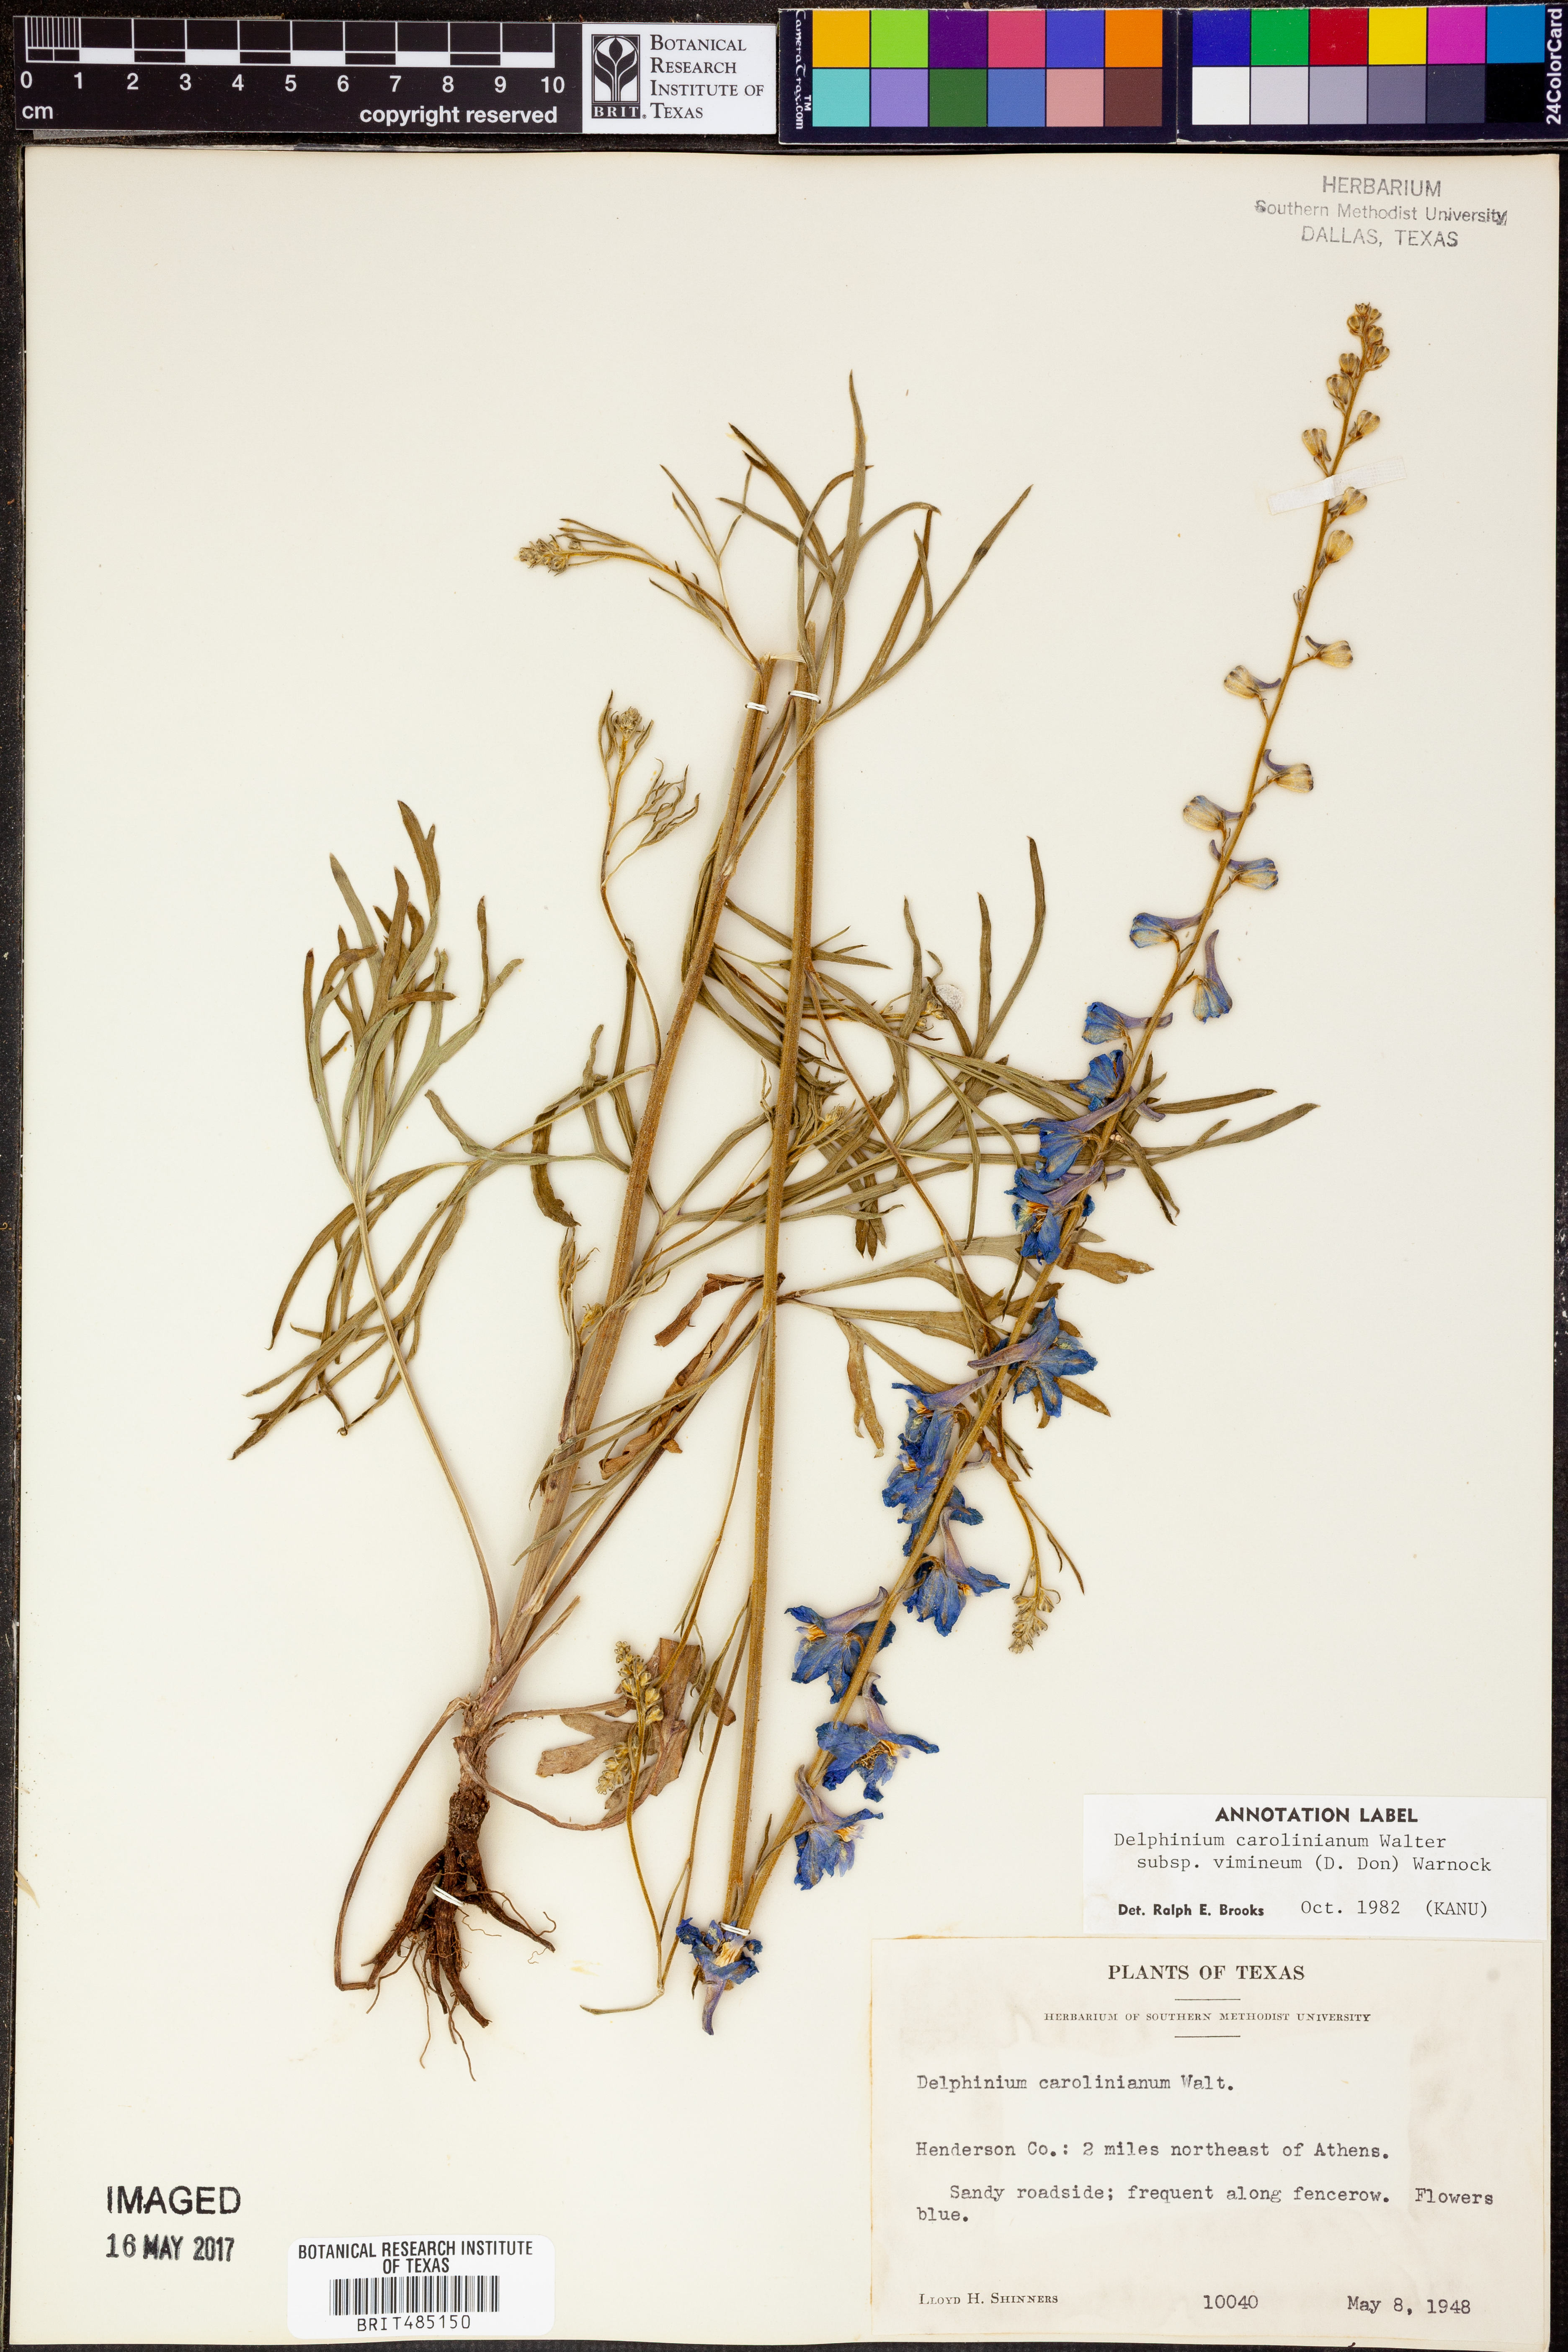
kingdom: Plantae
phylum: Tracheophyta
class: Magnoliopsida
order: Ranunculales
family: Ranunculaceae
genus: Delphinium
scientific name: Delphinium carolinianum
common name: Carolina larkspur
